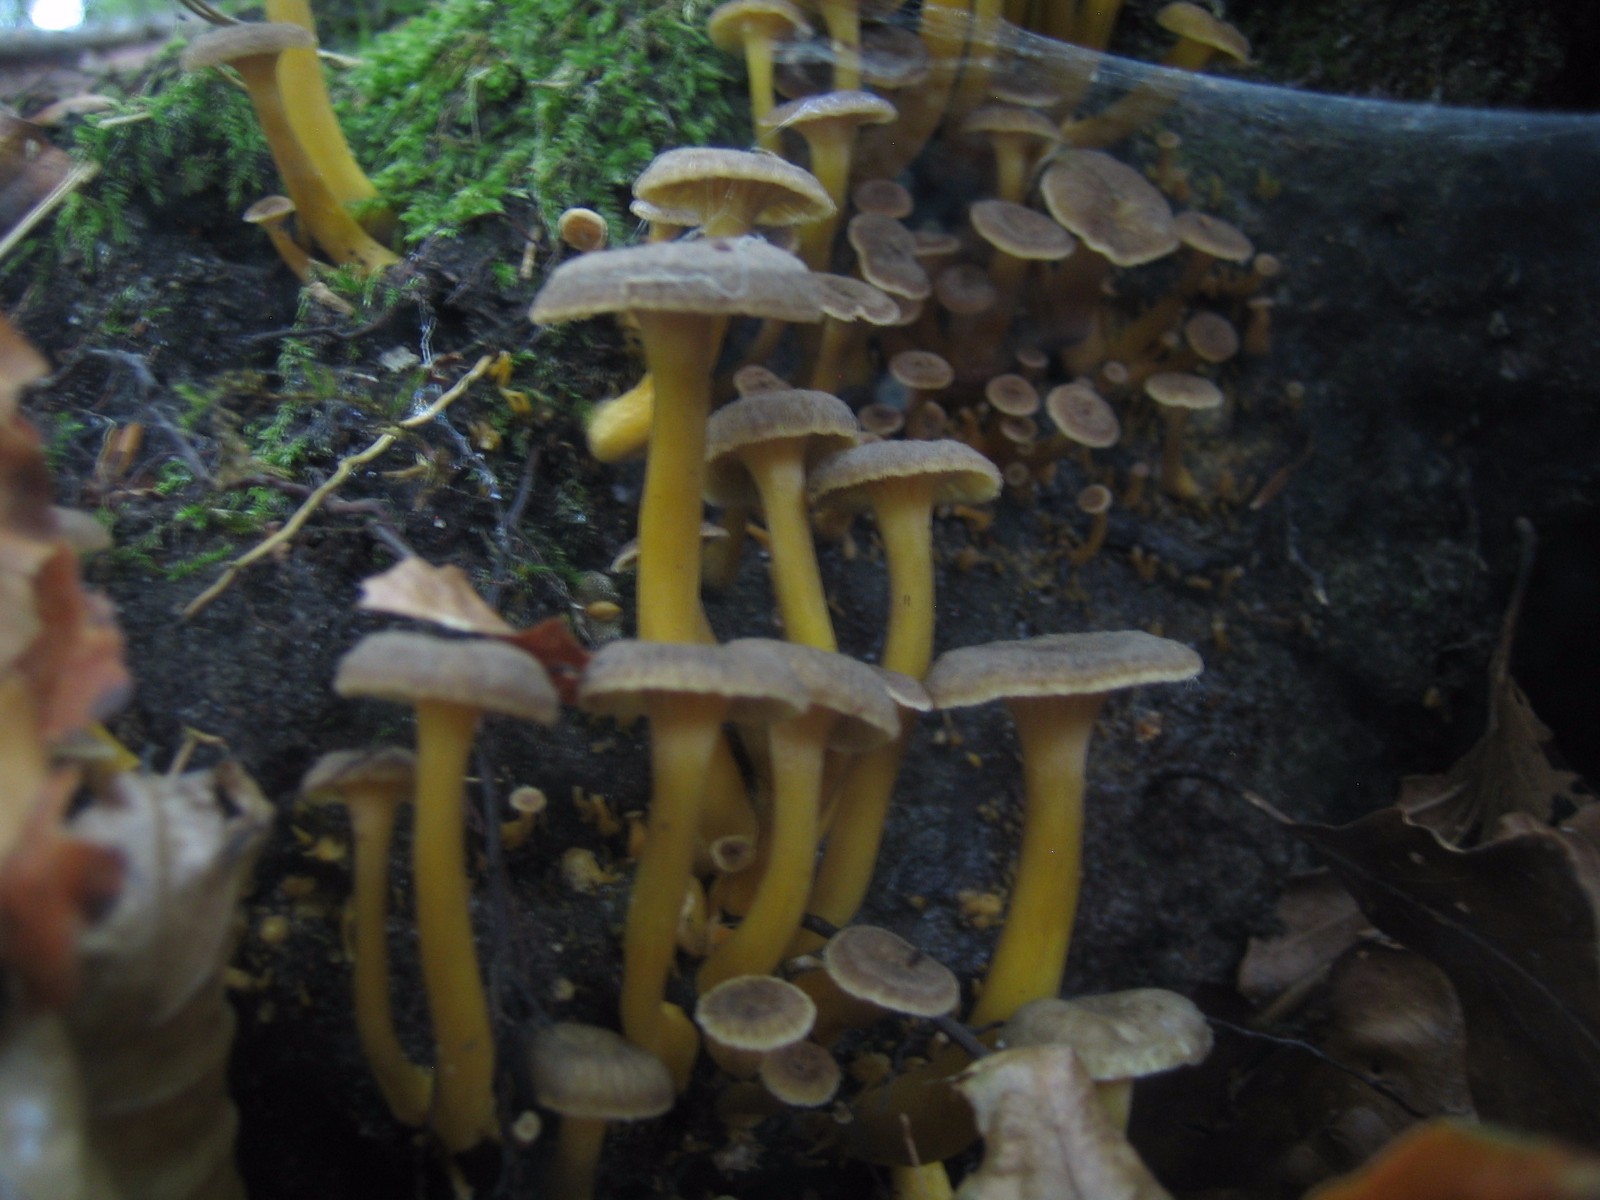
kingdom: Fungi
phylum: Basidiomycota
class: Agaricomycetes
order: Cantharellales
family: Hydnaceae
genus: Craterellus
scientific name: Craterellus tubaeformis
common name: tragt-kantarel
